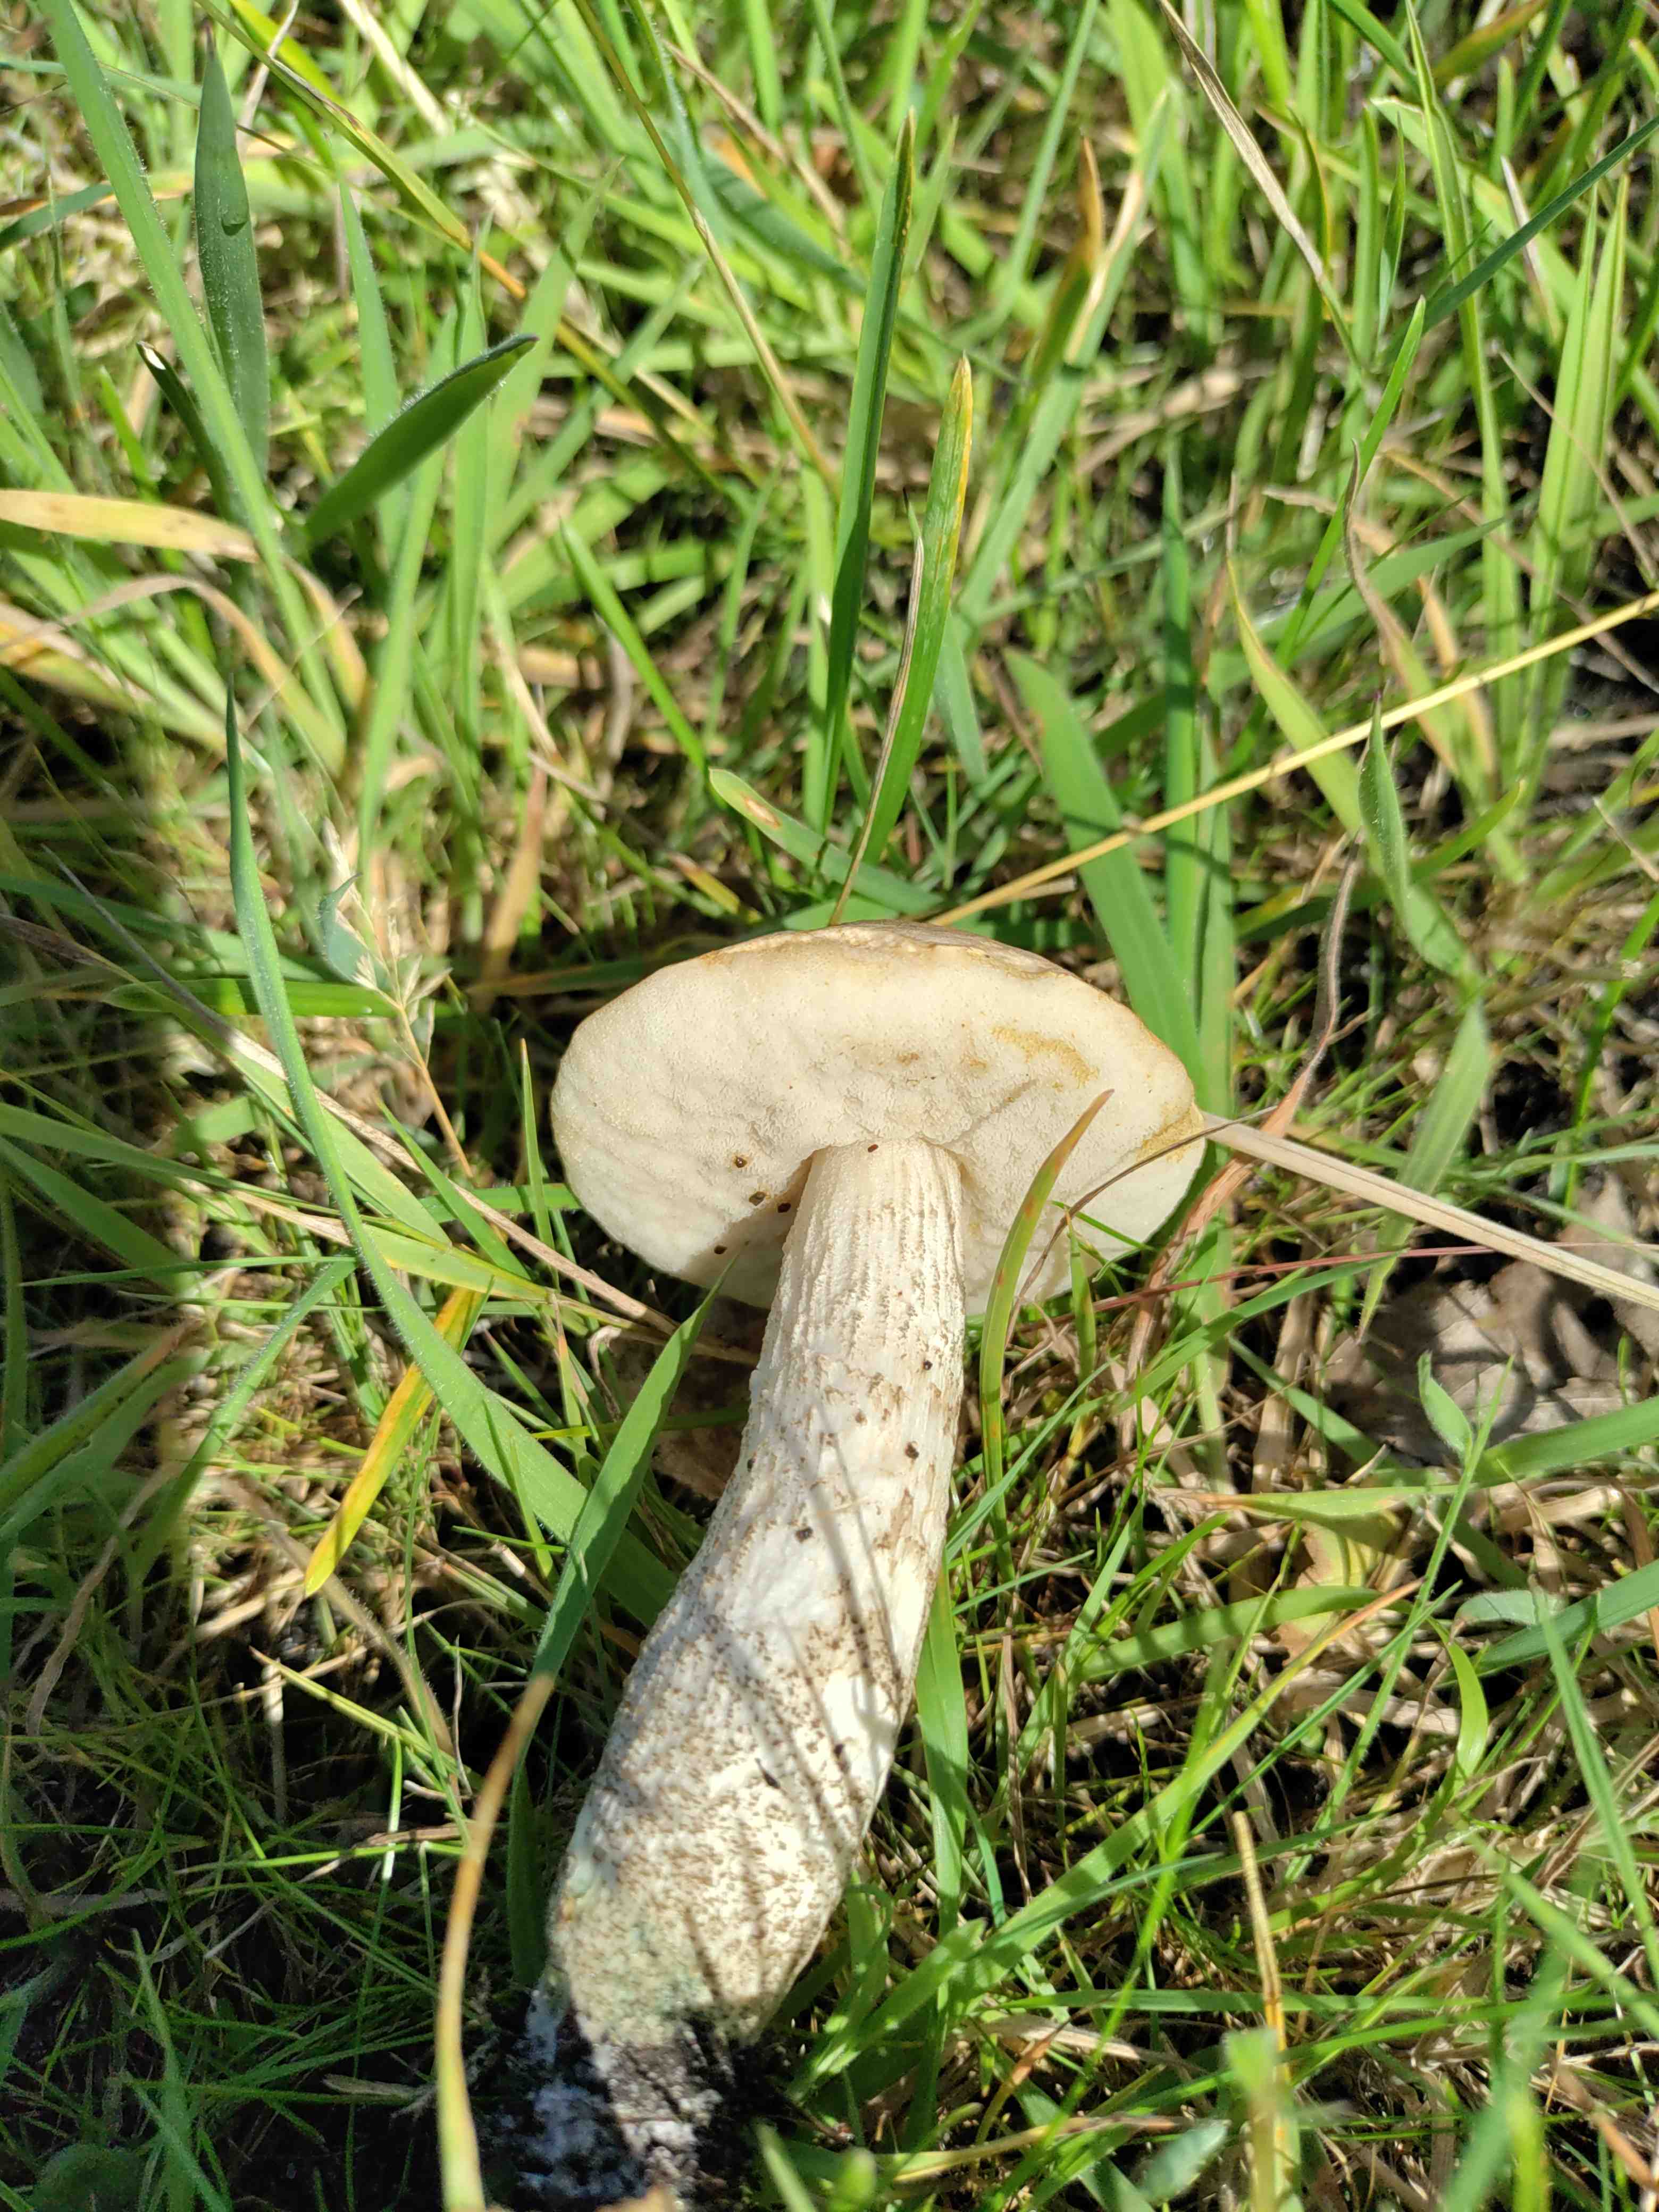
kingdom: Fungi
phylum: Basidiomycota
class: Agaricomycetes
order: Boletales
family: Boletaceae
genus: Leccinum
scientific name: Leccinum
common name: skælrørhat
